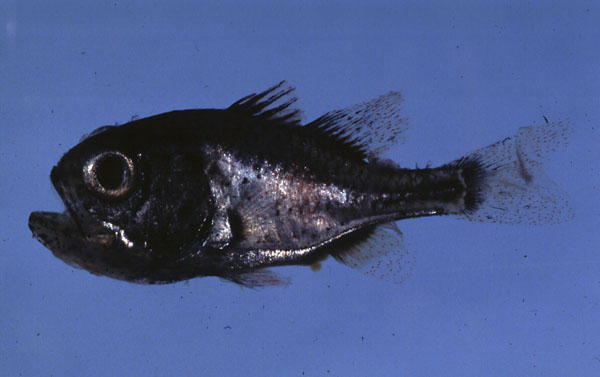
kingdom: Animalia
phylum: Chordata
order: Perciformes
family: Apogonidae
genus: Siphamia
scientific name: Siphamia majimai
